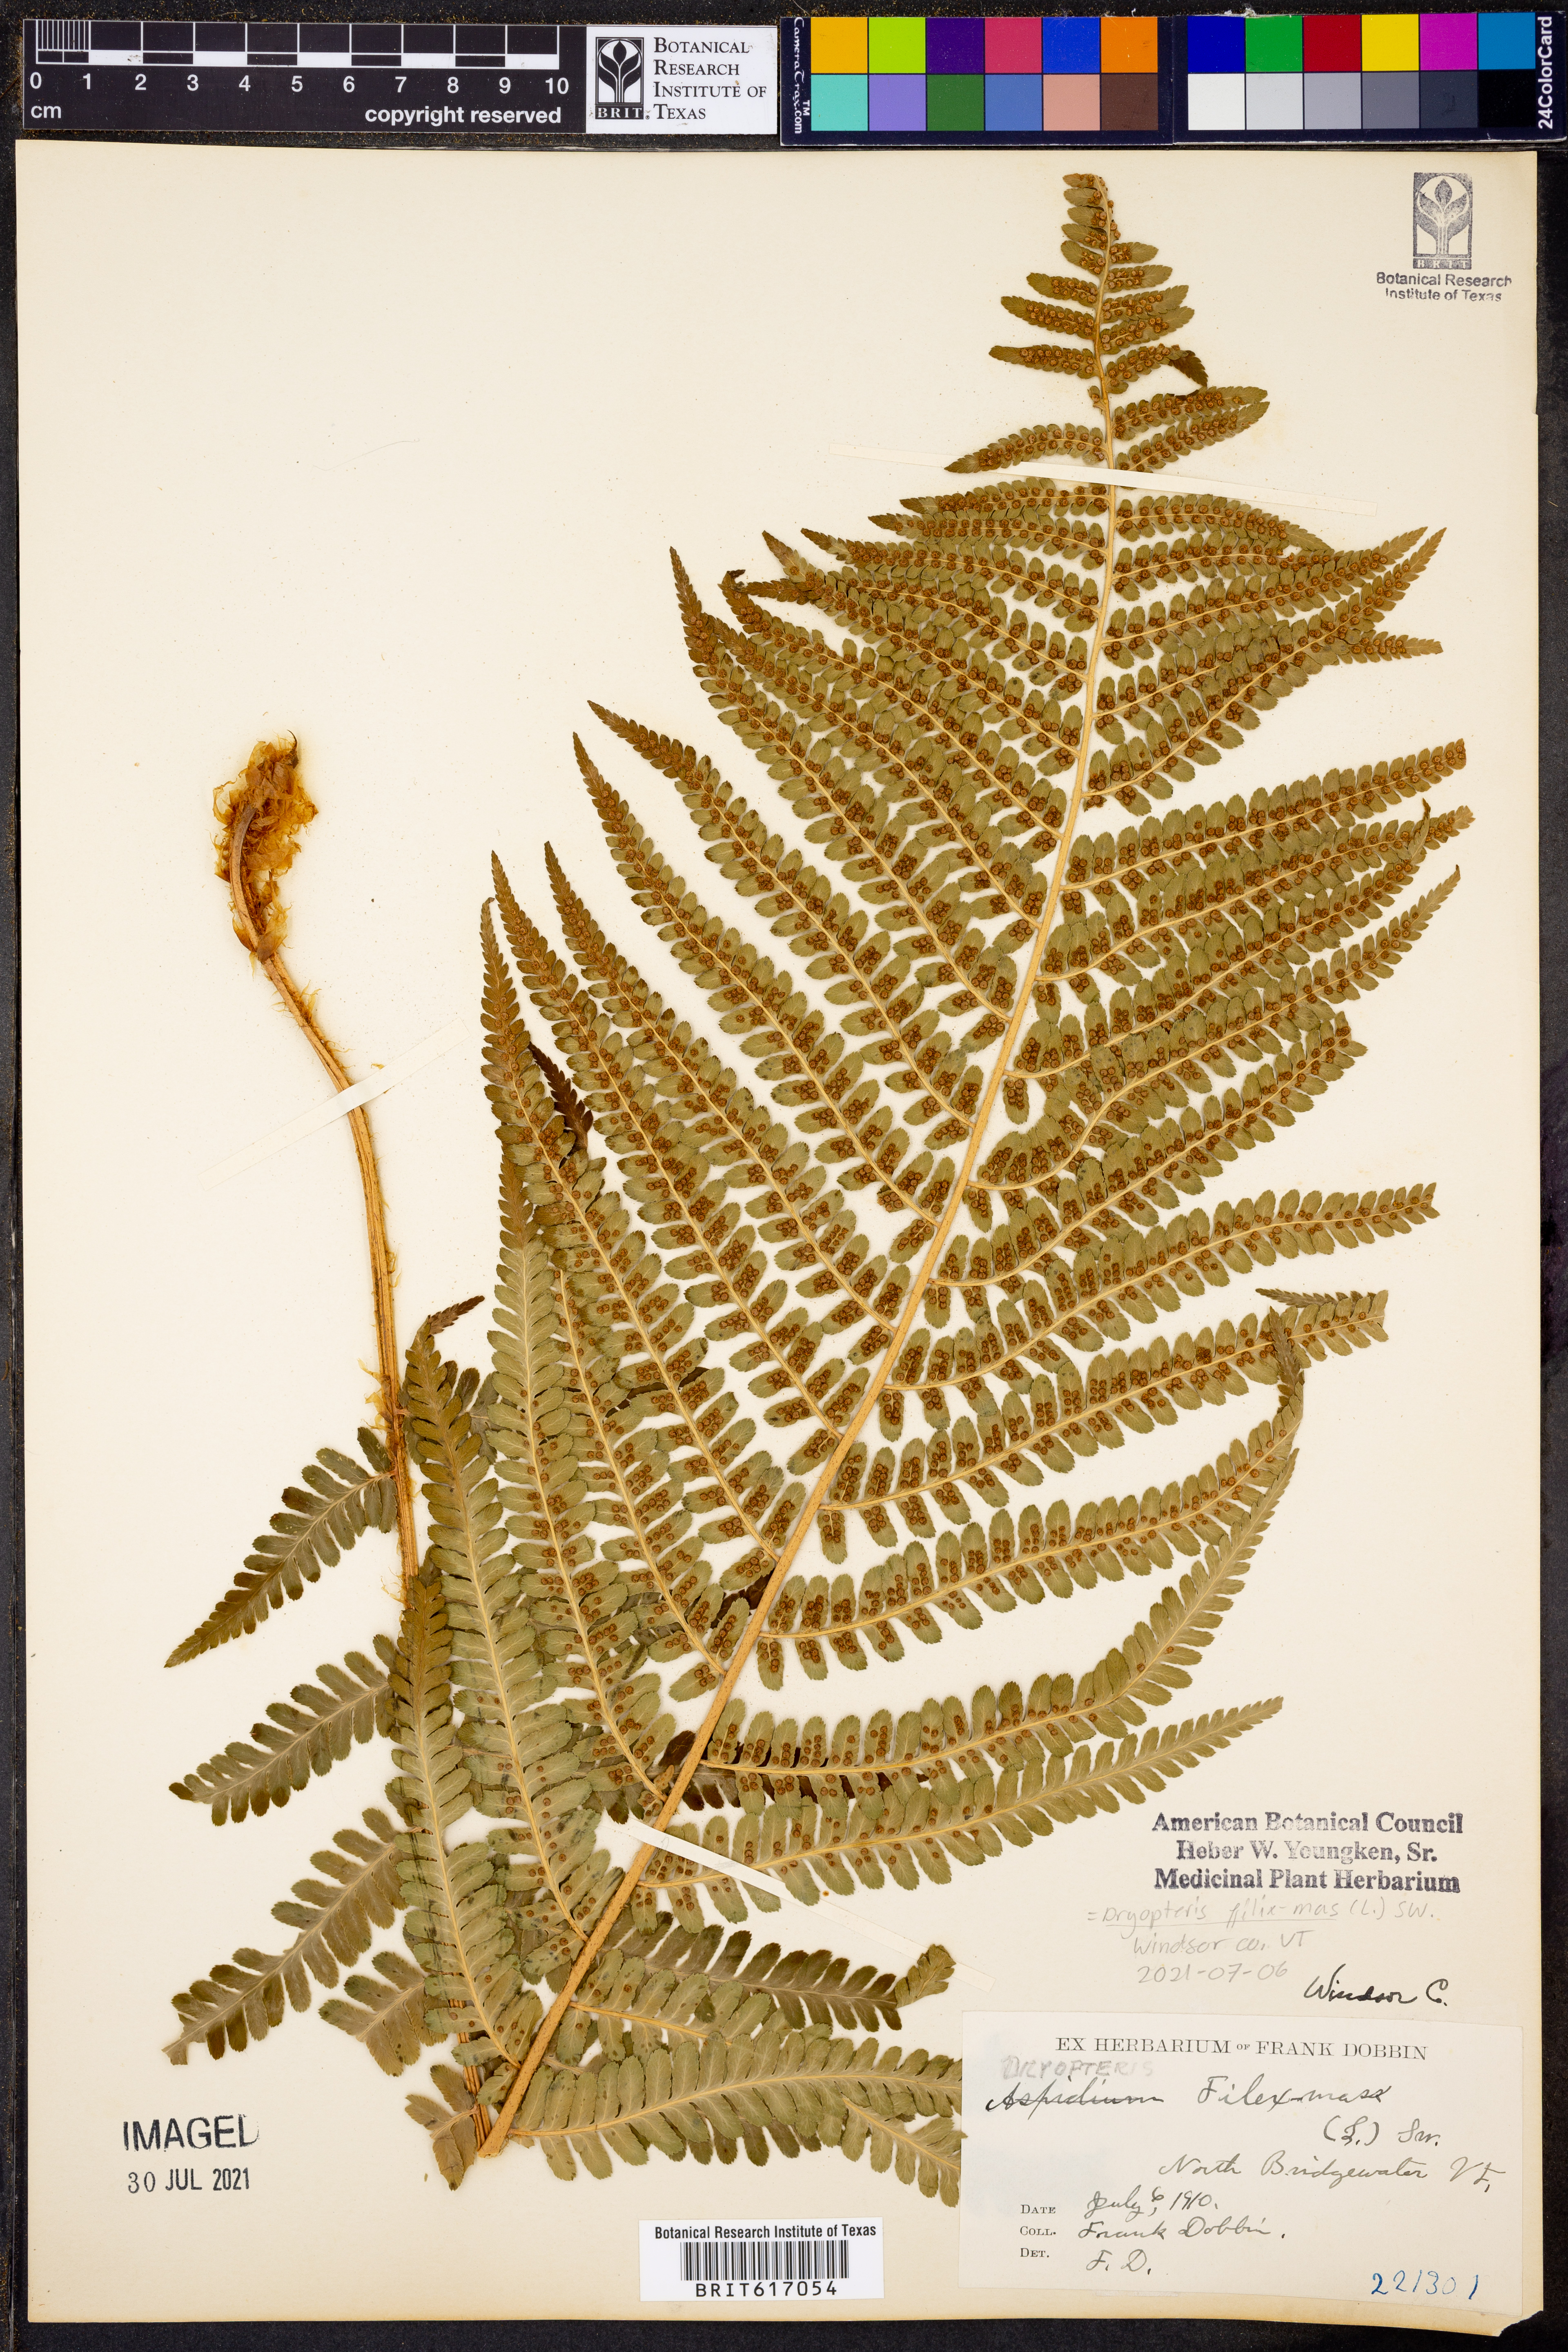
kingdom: Plantae
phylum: Tracheophyta
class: Polypodiopsida
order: Polypodiales
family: Dryopteridaceae
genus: Dryopteris
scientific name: Dryopteris filix-mas
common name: Male fern
